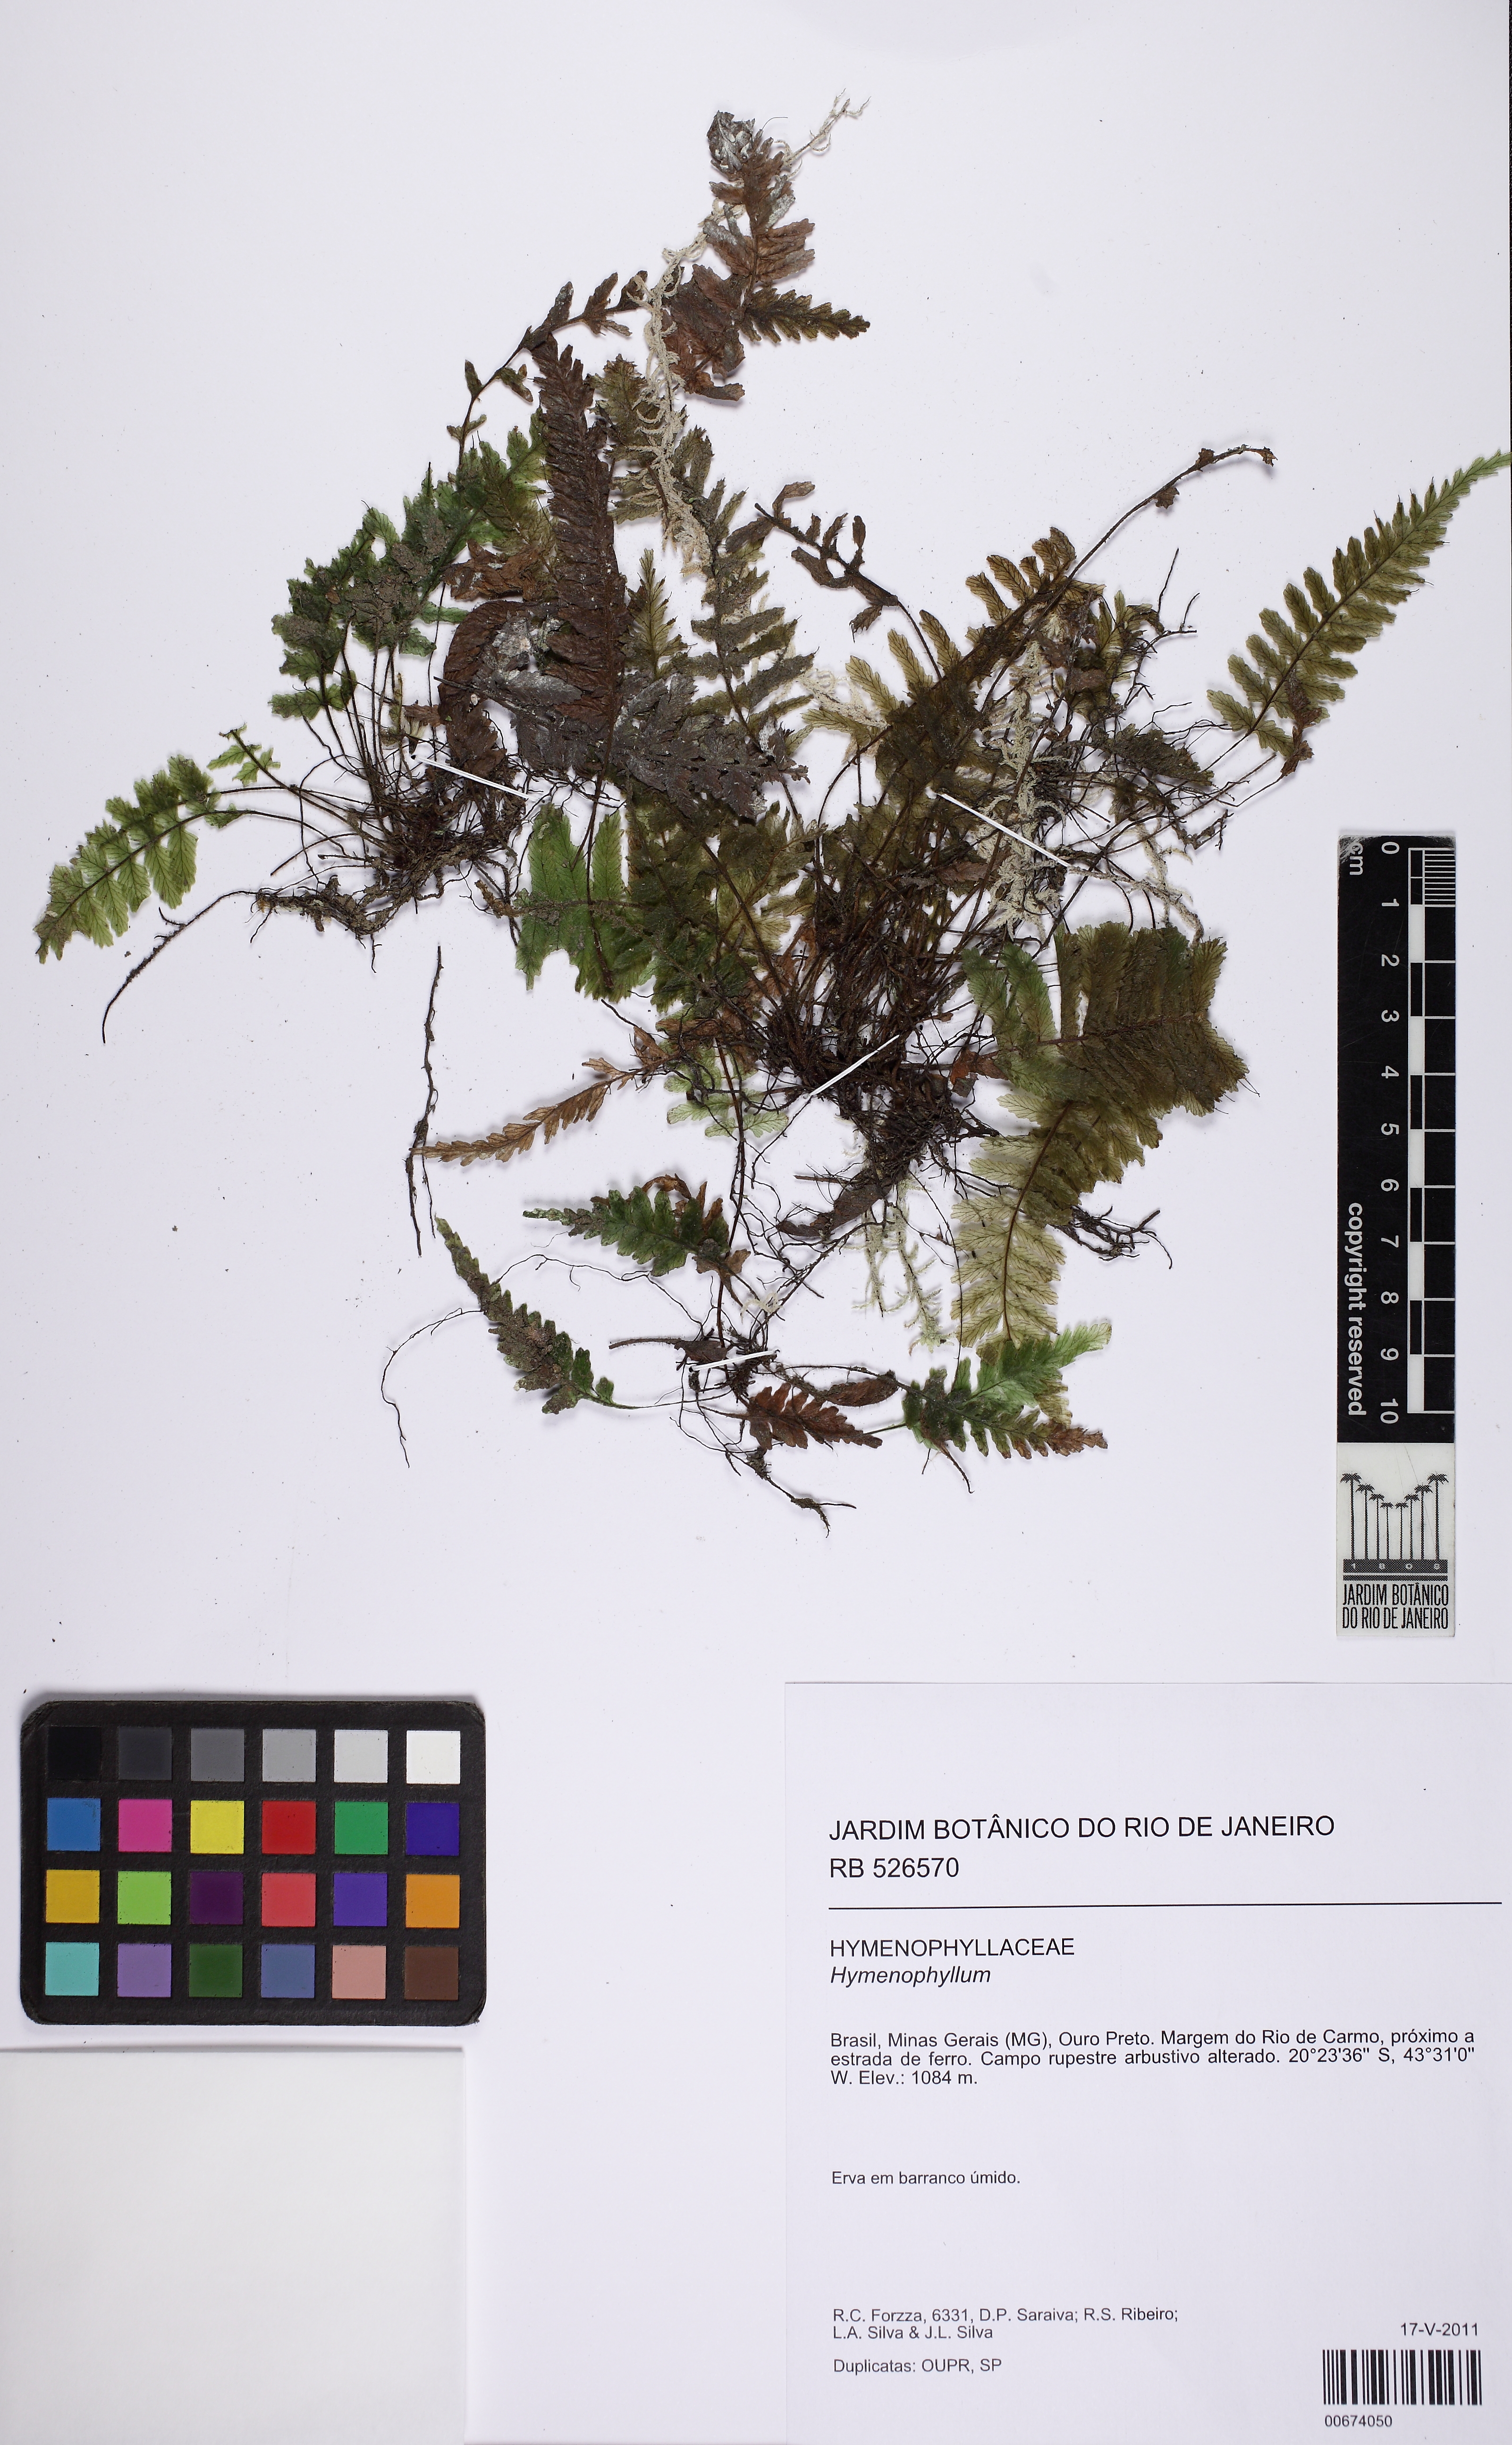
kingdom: Plantae
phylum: Tracheophyta
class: Polypodiopsida
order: Hymenophyllales
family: Hymenophyllaceae
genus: Trichomanes
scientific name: Trichomanes pilosum
